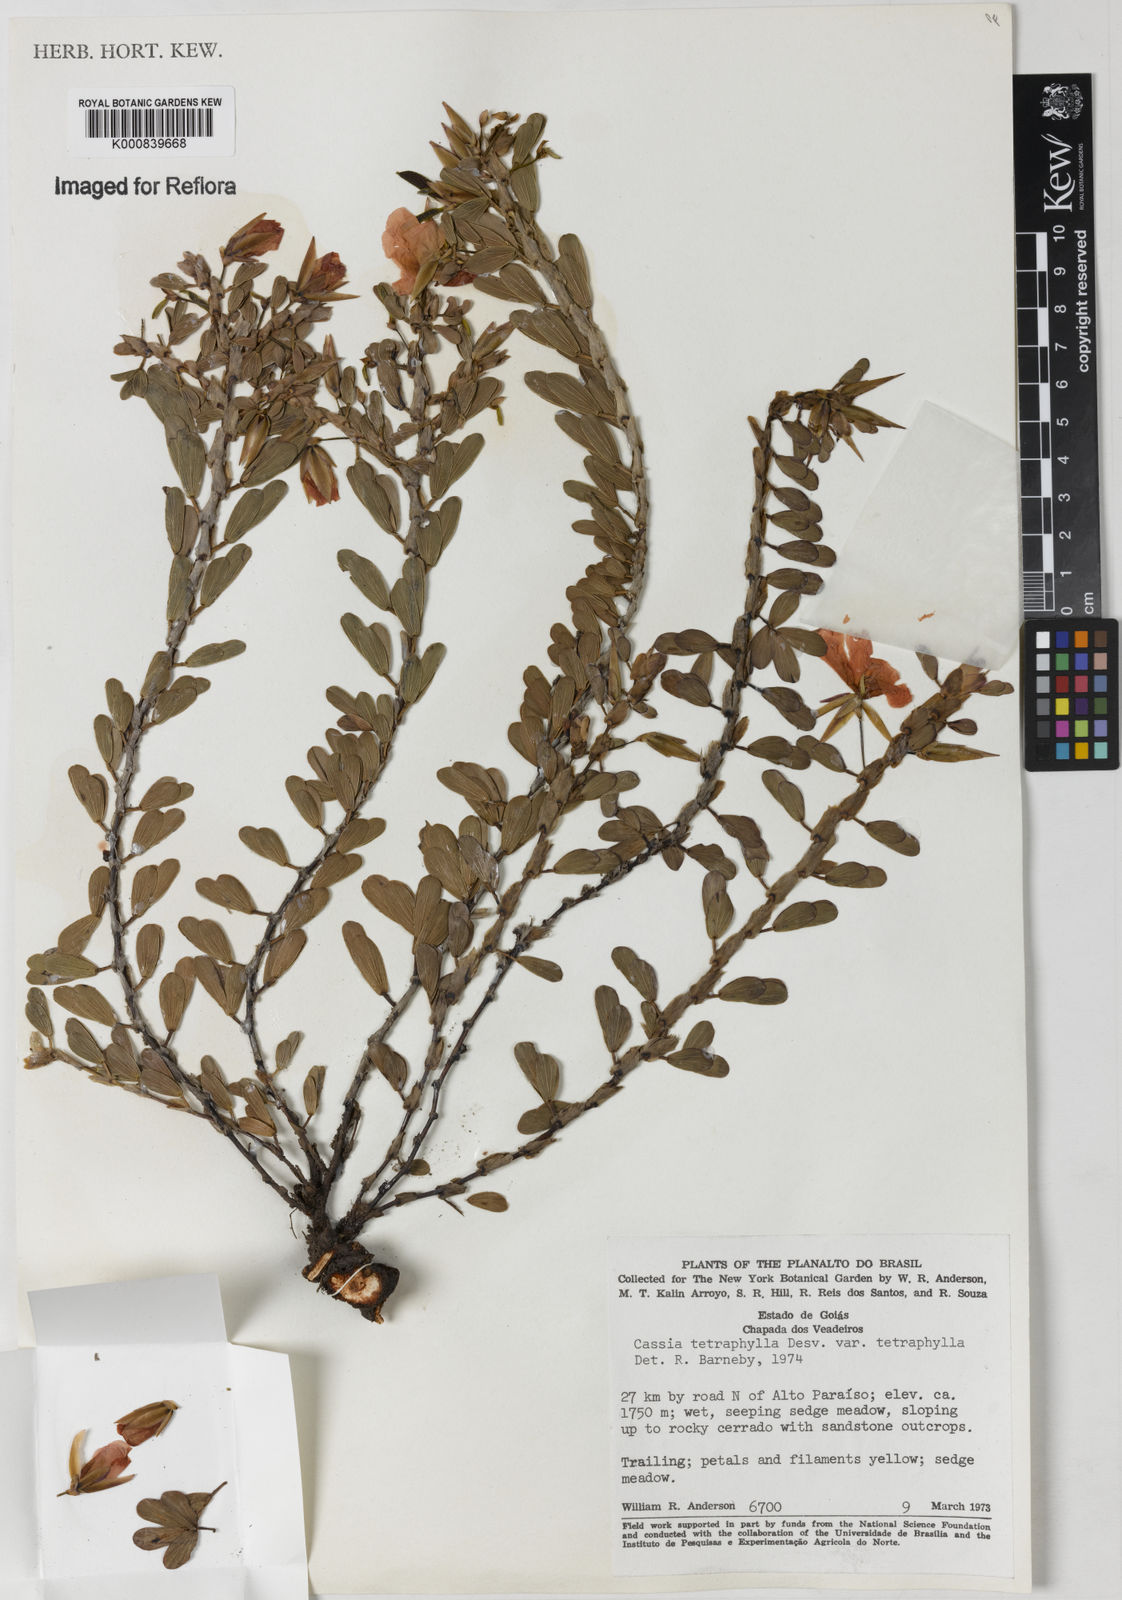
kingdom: Plantae
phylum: Tracheophyta
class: Magnoliopsida
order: Fabales
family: Fabaceae
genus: Chamaecrista
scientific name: Chamaecrista desvauxii
